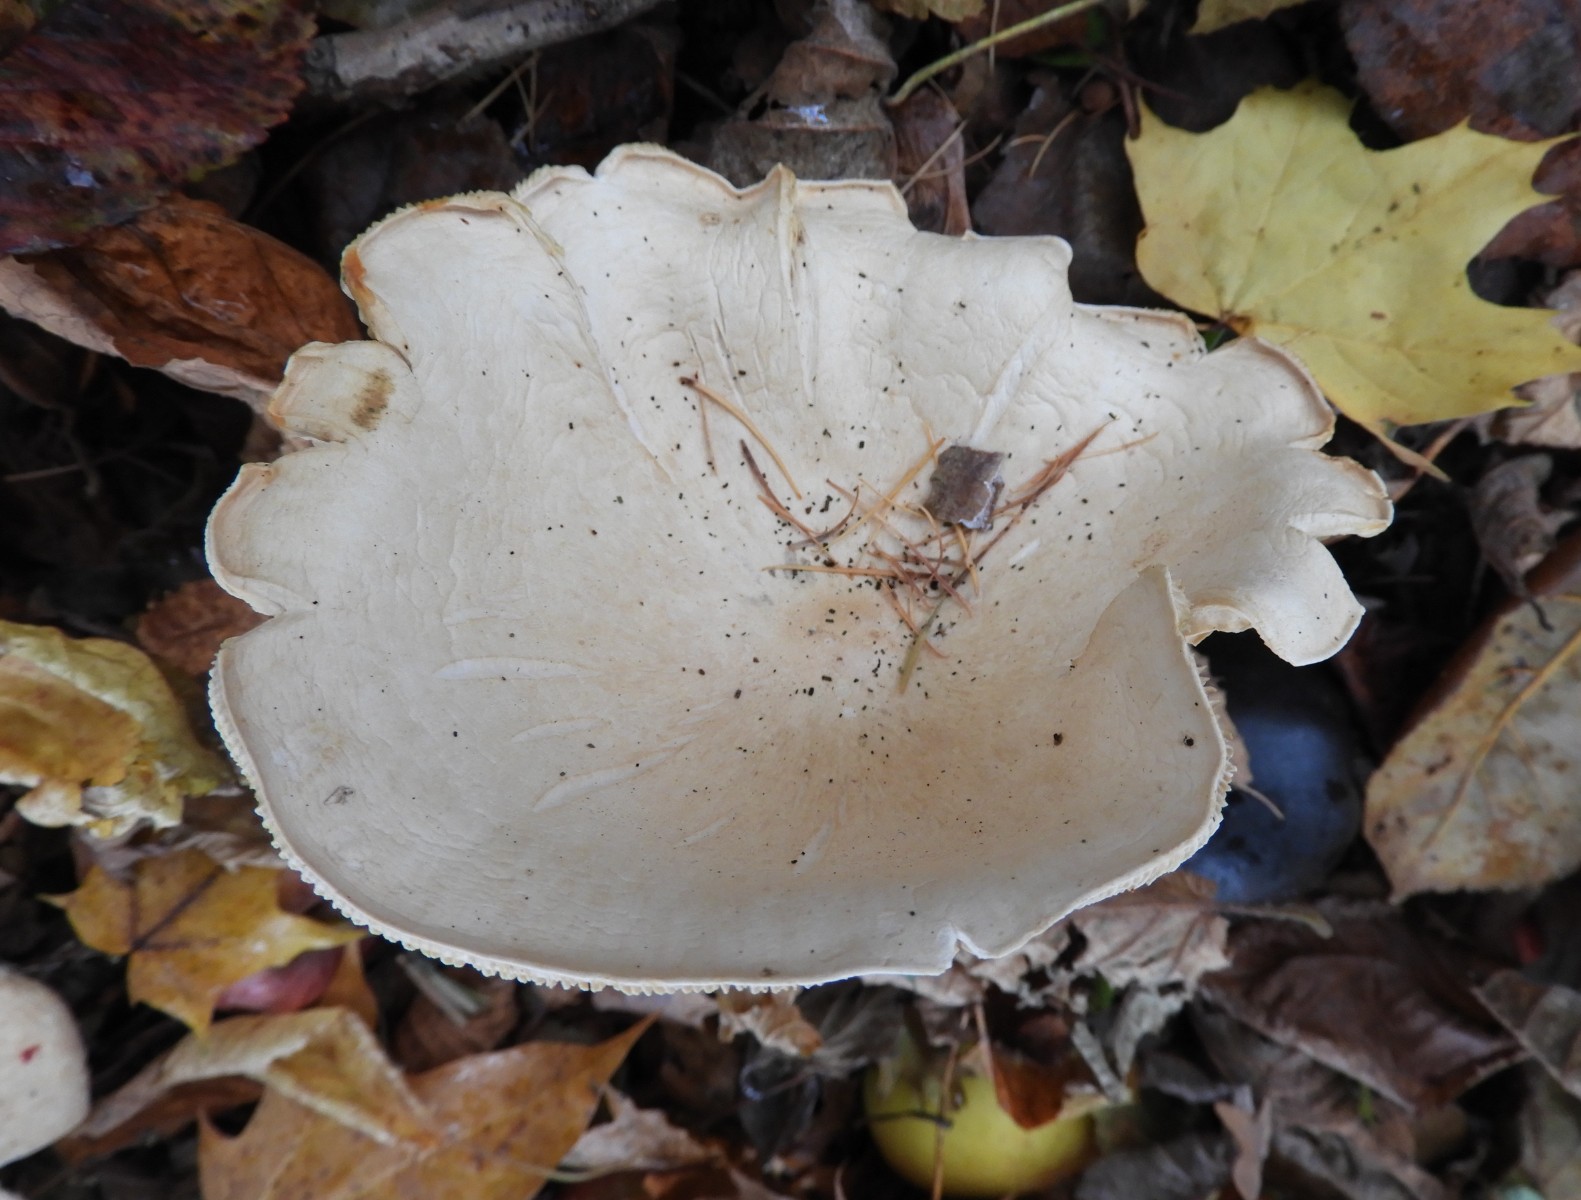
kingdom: Fungi
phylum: Basidiomycota
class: Agaricomycetes
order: Agaricales
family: Tricholomataceae
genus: Infundibulicybe
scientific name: Infundibulicybe geotropa
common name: stor tragthat
